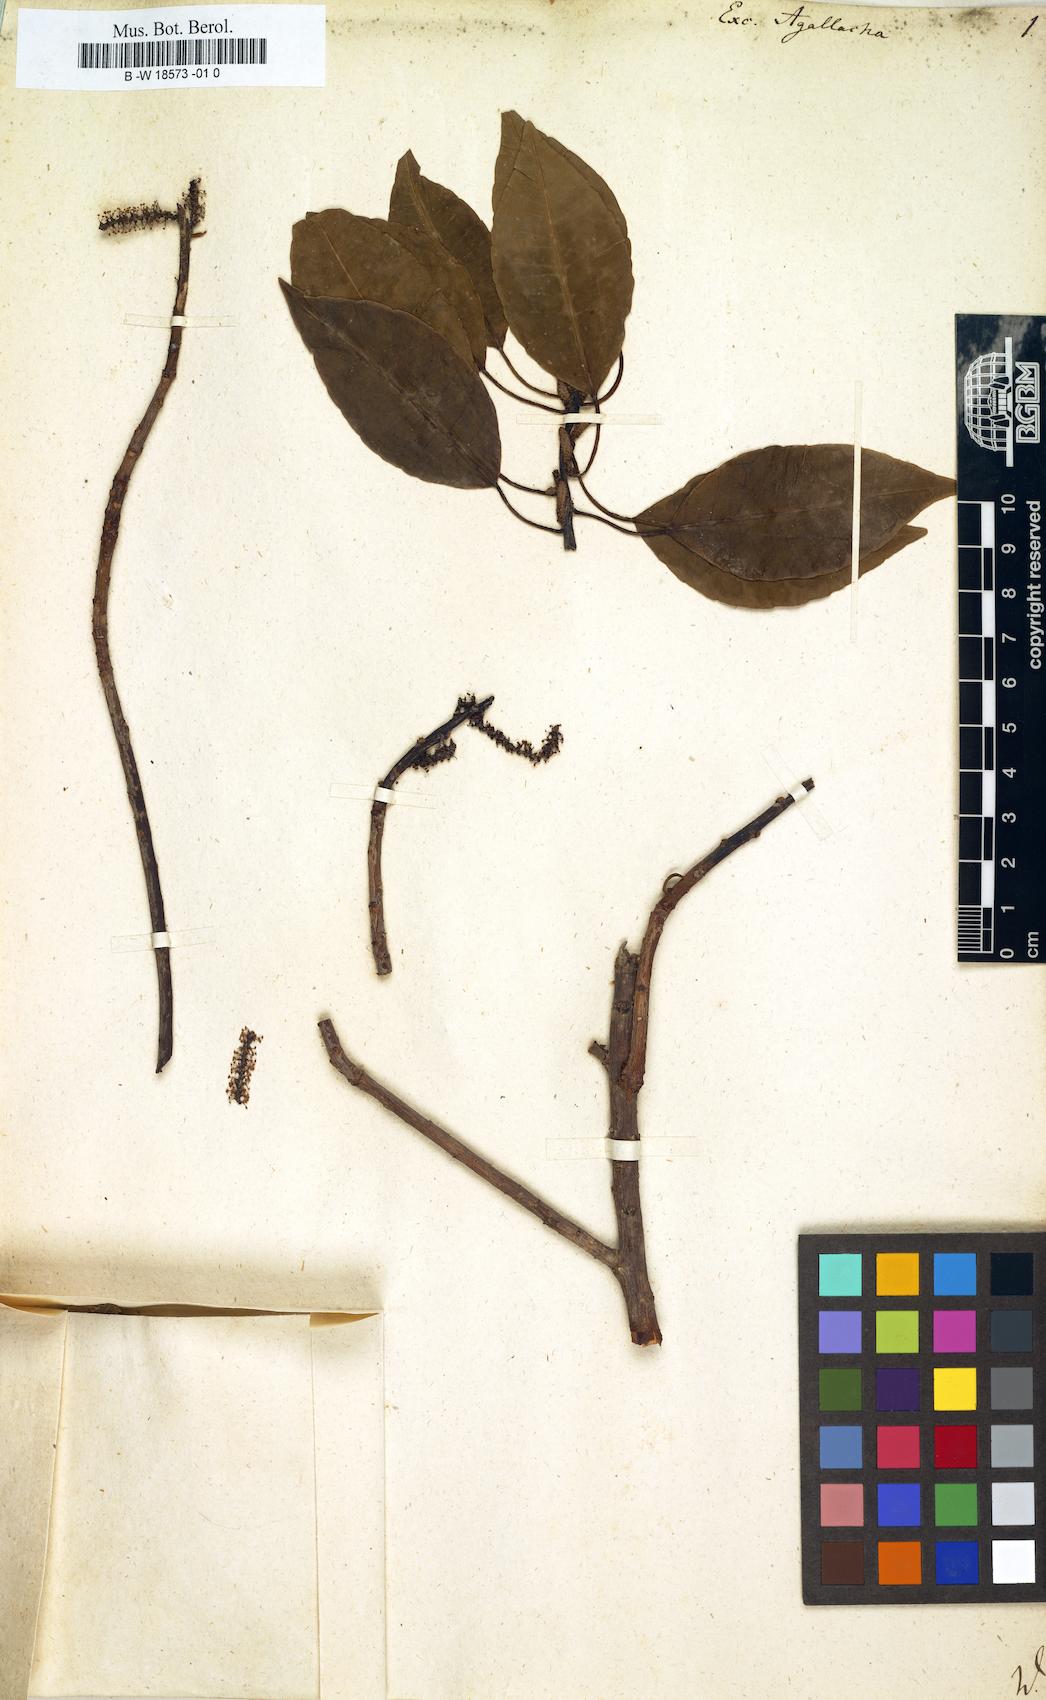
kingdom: Plantae
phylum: Tracheophyta
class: Magnoliopsida
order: Malpighiales
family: Euphorbiaceae
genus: Excoecaria
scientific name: Excoecaria agallocha
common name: River poisontree
